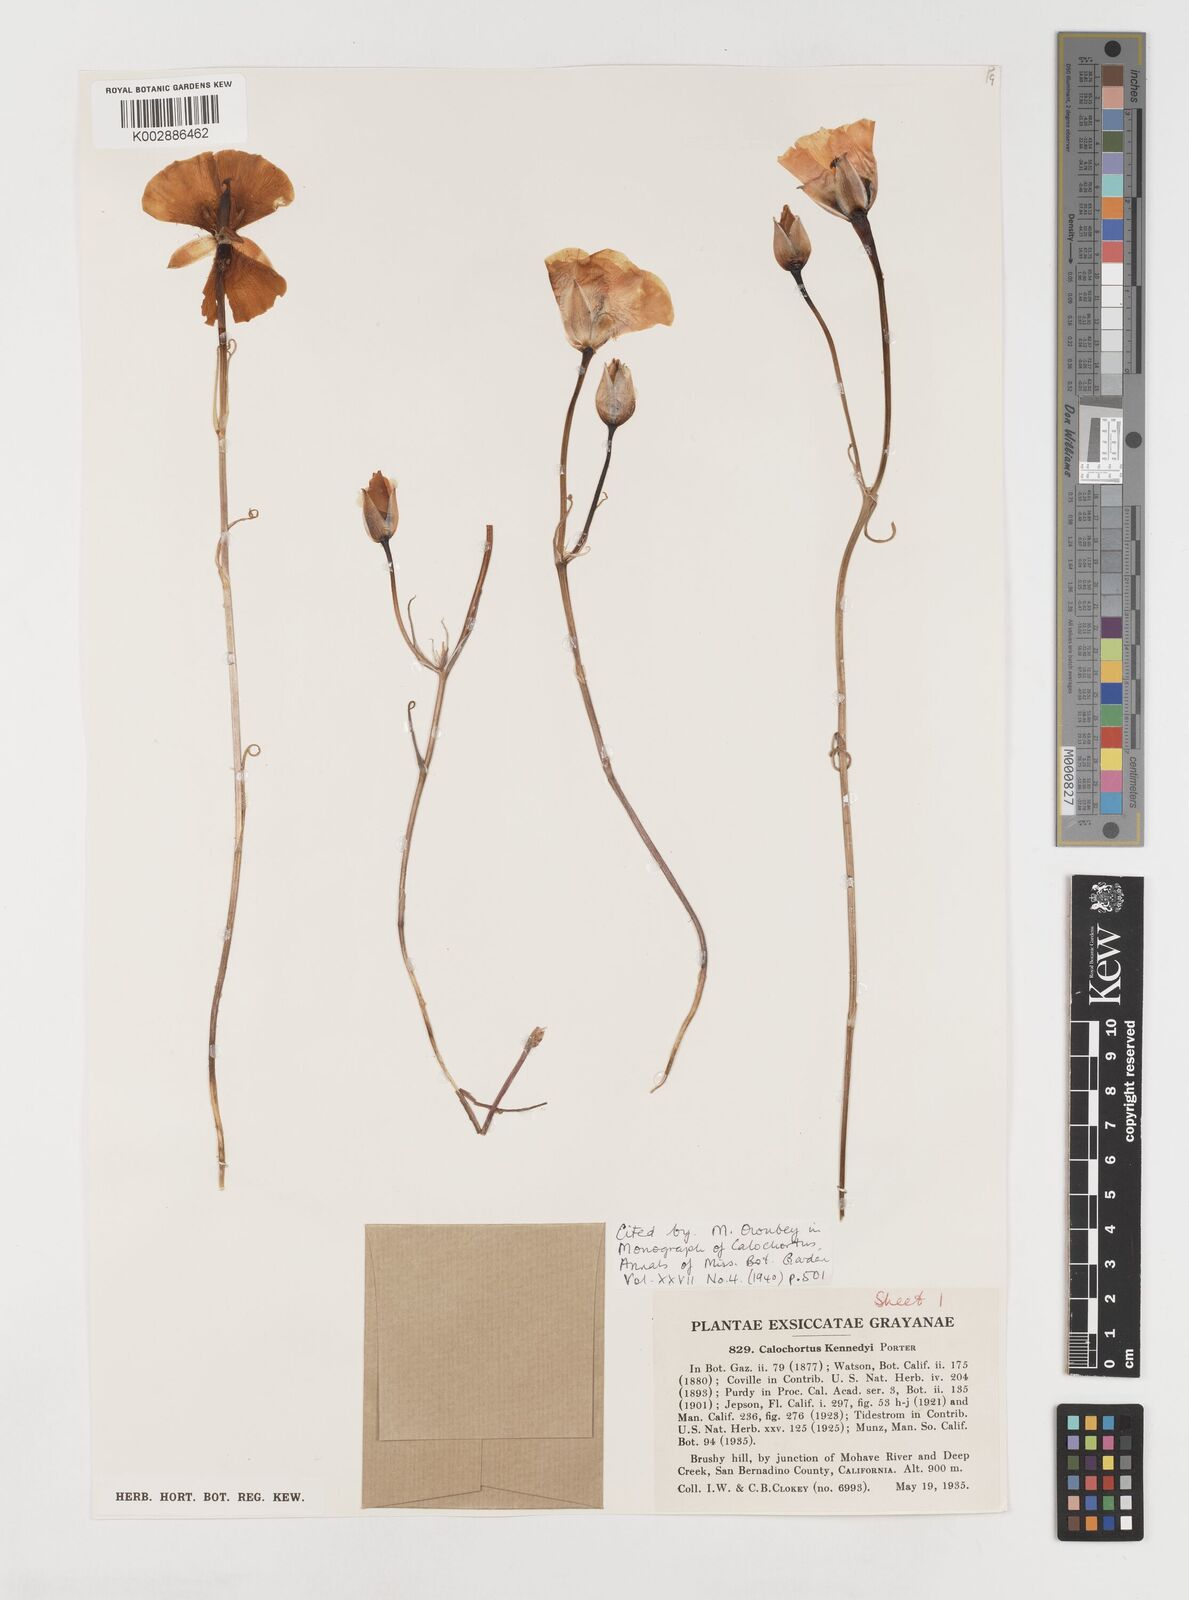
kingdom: Plantae
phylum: Tracheophyta
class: Liliopsida
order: Liliales
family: Liliaceae
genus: Calochortus
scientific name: Calochortus kennedyi
